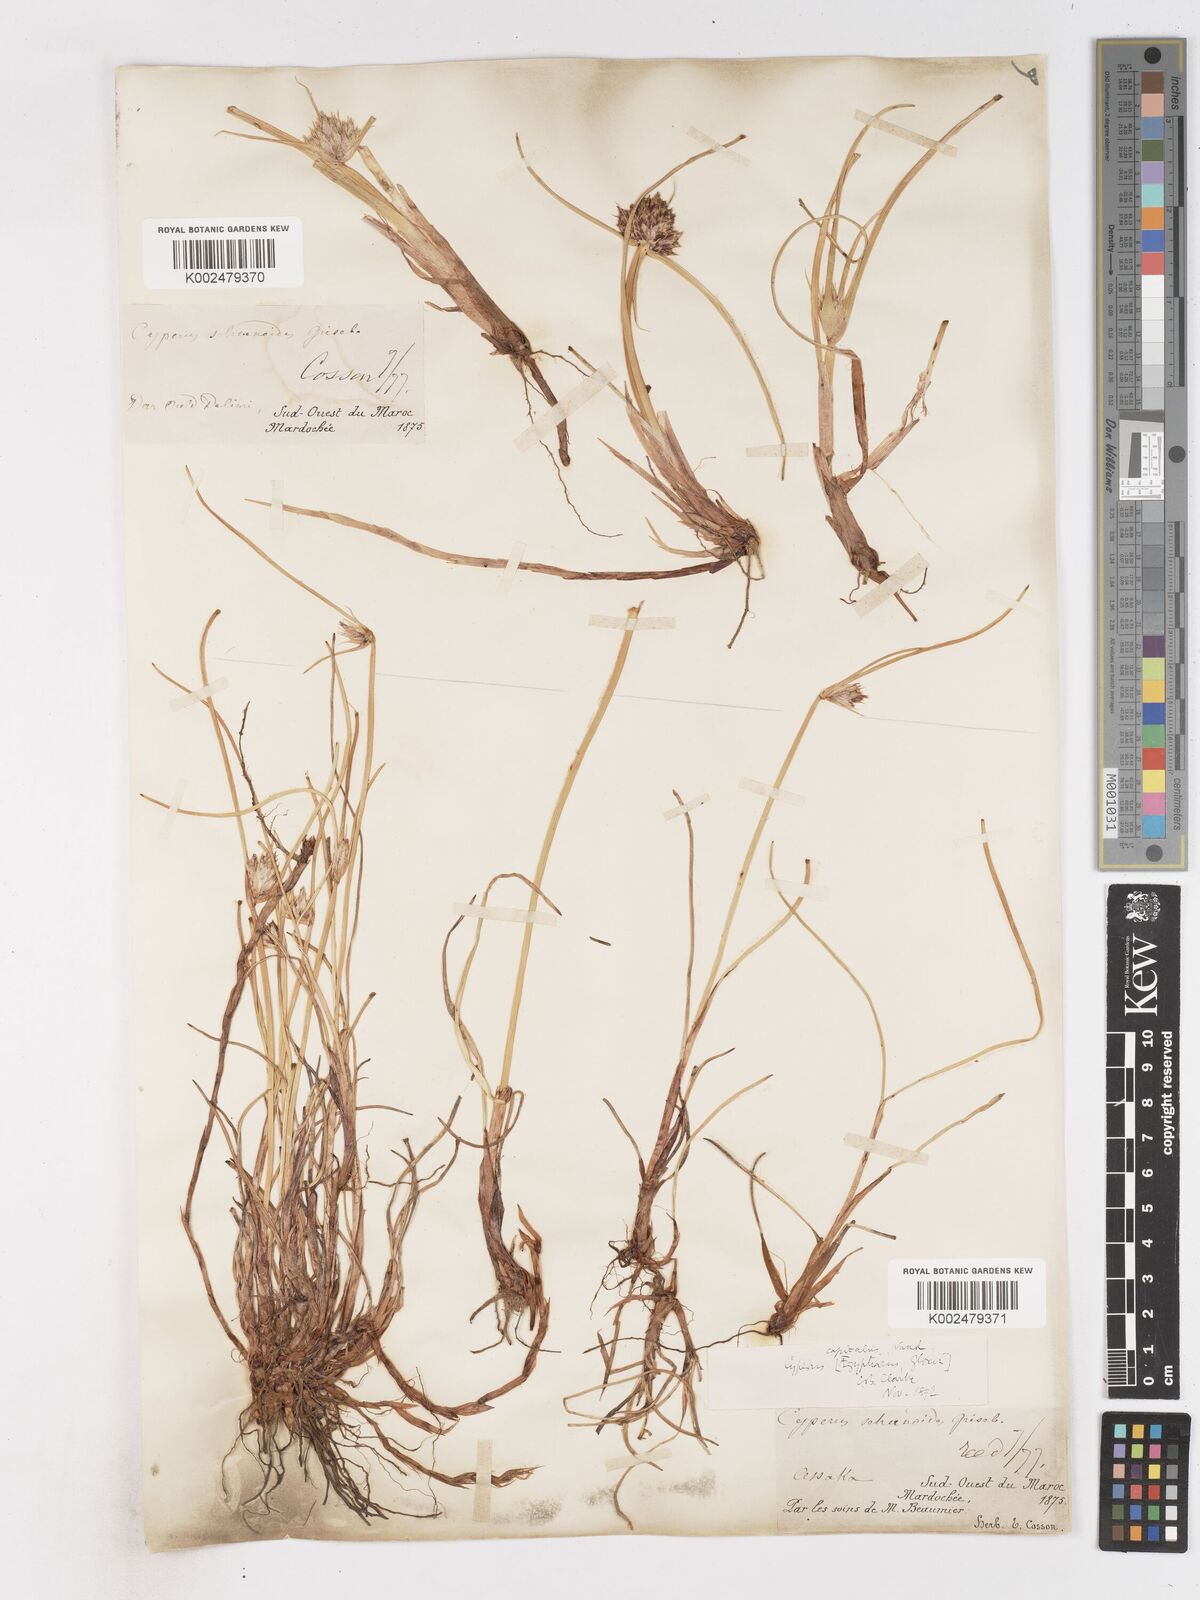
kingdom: Plantae
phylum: Tracheophyta
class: Liliopsida
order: Poales
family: Cyperaceae
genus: Cyperus
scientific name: Cyperus capitatus
